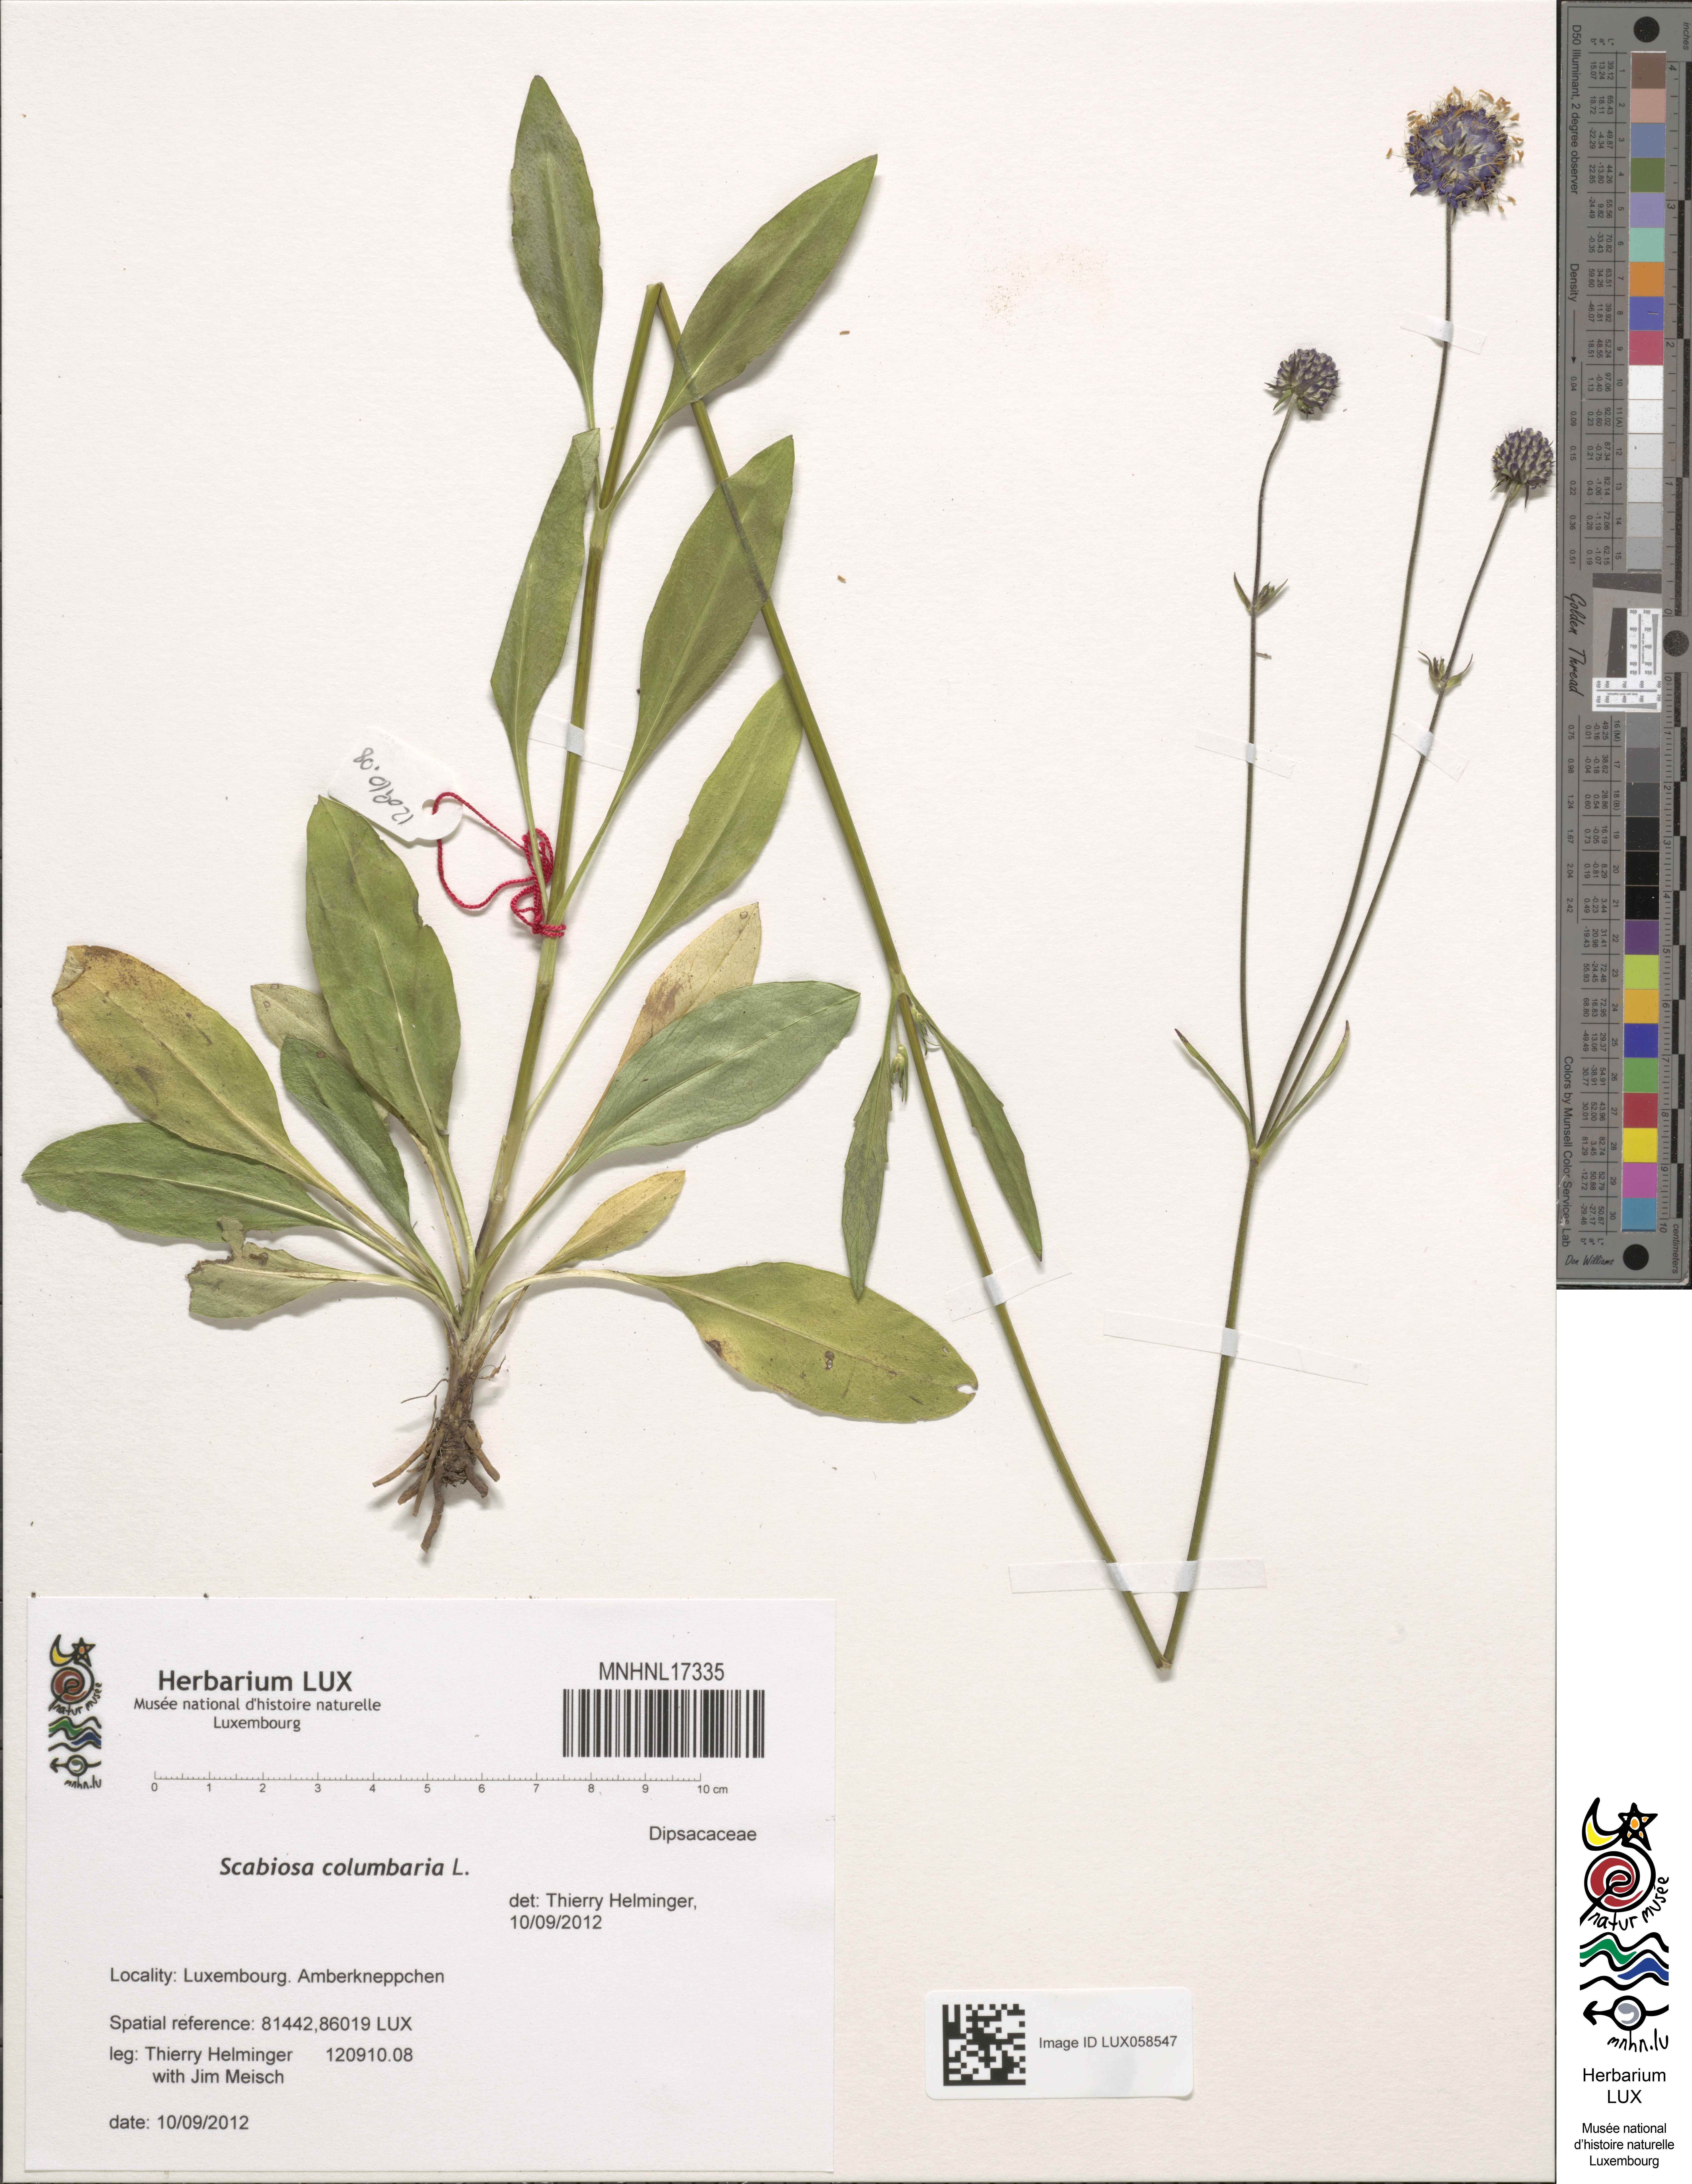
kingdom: Plantae
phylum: Tracheophyta
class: Magnoliopsida
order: Dipsacales
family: Caprifoliaceae
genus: Scabiosa
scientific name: Scabiosa columbaria
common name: Small scabious
